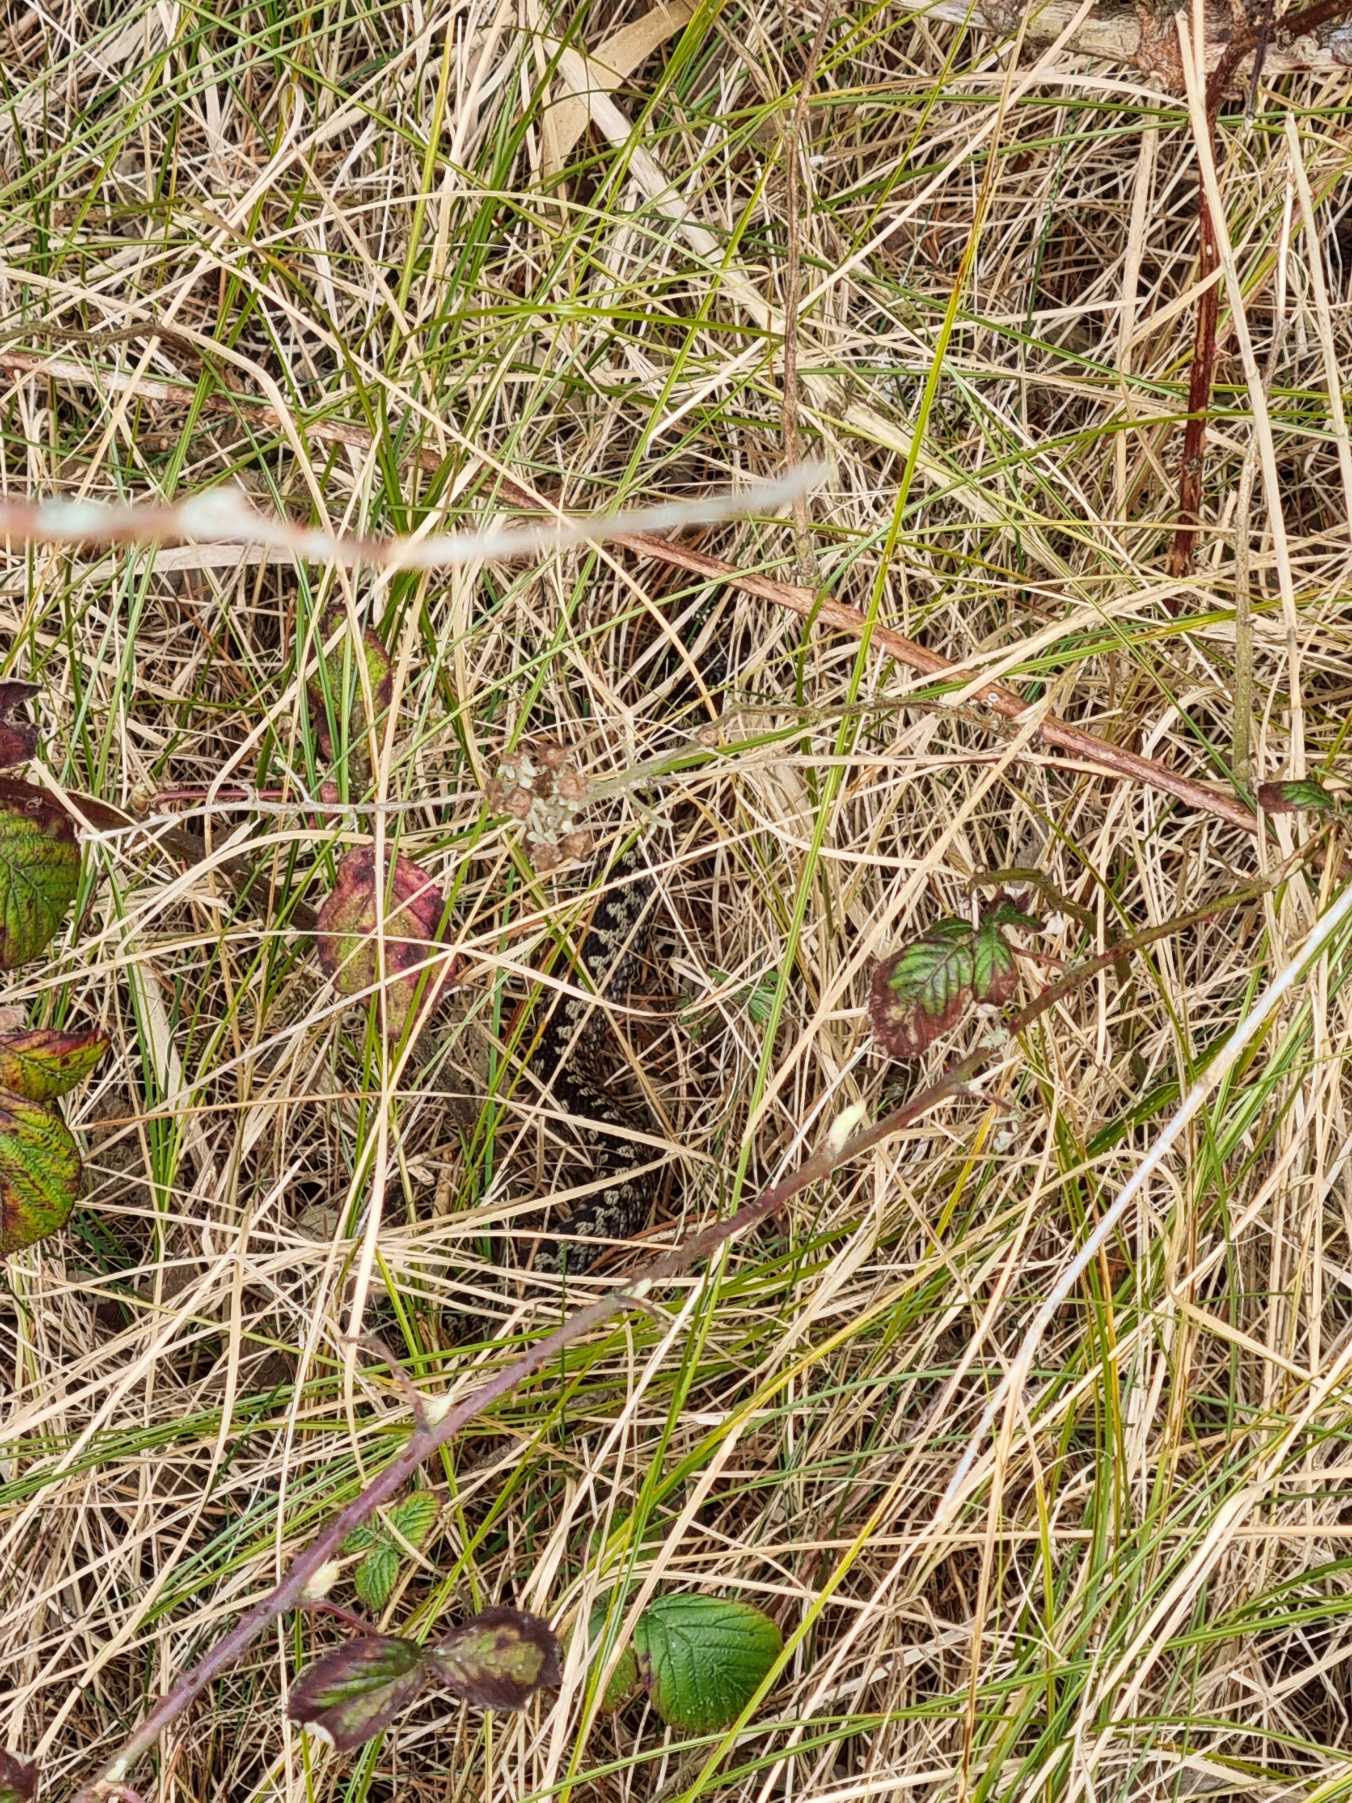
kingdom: Animalia
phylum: Chordata
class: Squamata
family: Viperidae
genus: Vipera
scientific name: Vipera berus
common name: Hugorm
